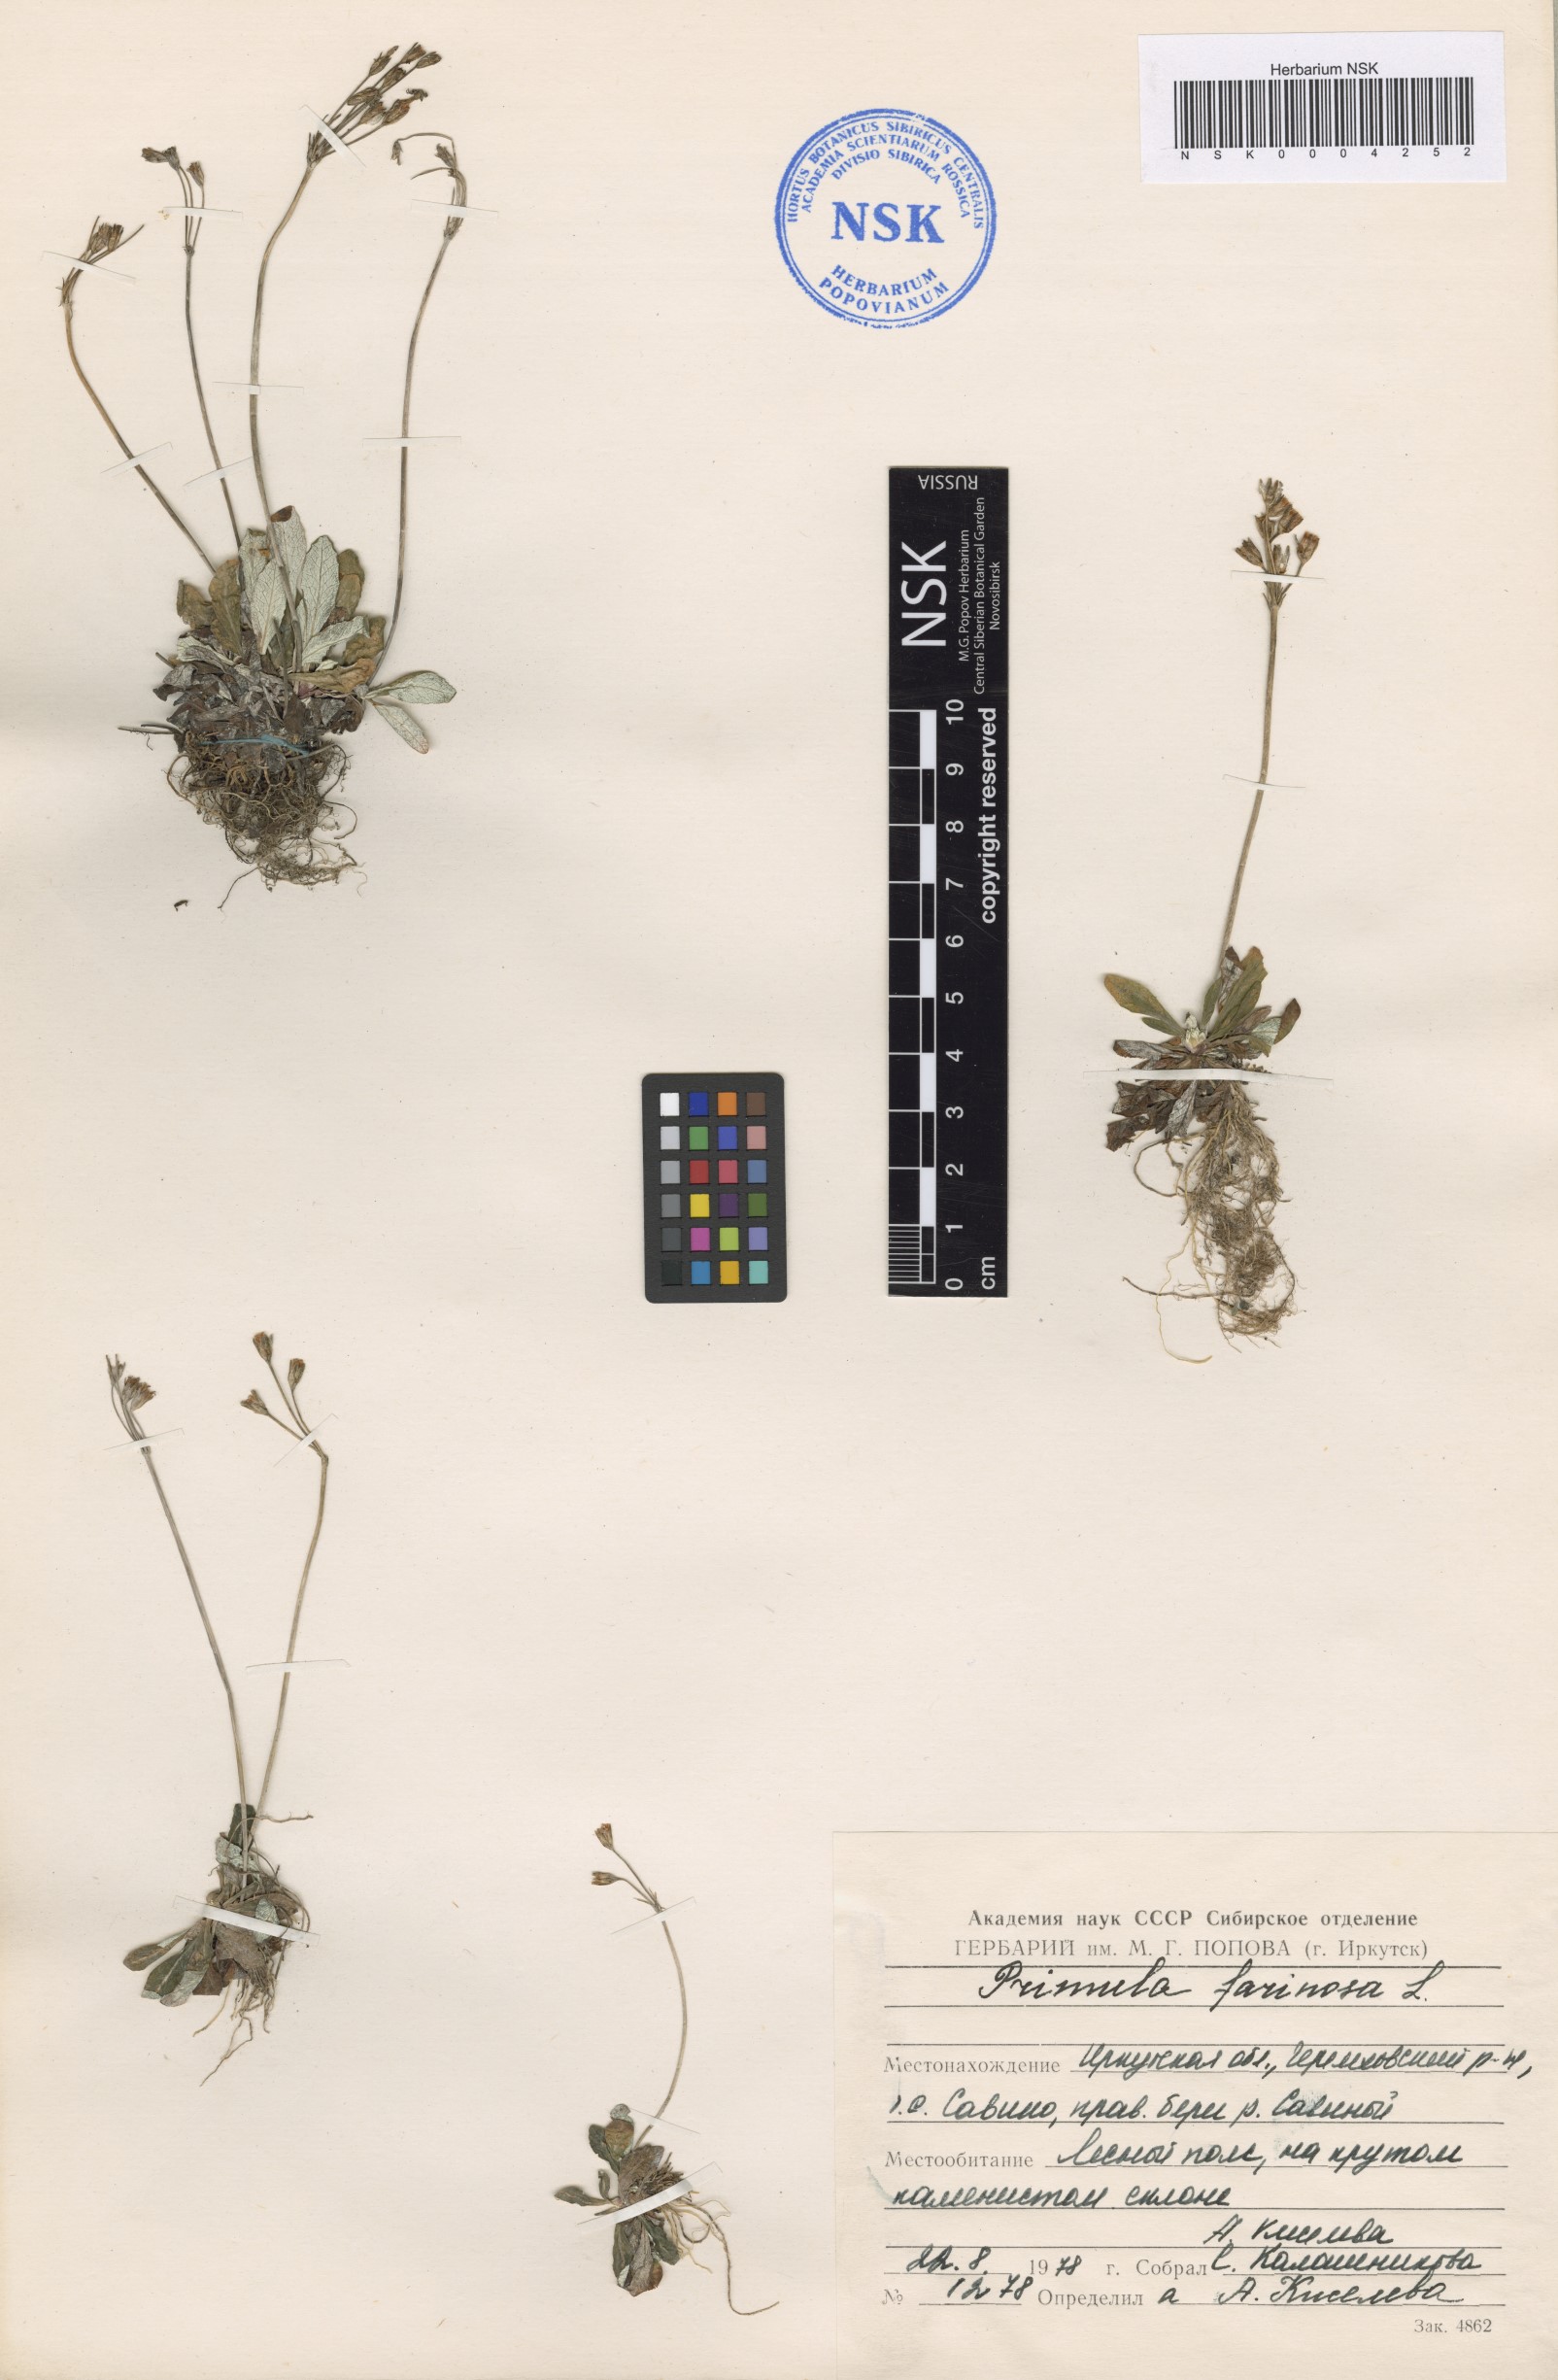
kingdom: Plantae
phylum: Tracheophyta
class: Magnoliopsida
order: Ericales
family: Primulaceae
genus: Primula
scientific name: Primula farinosa
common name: Bird's-eye primrose
